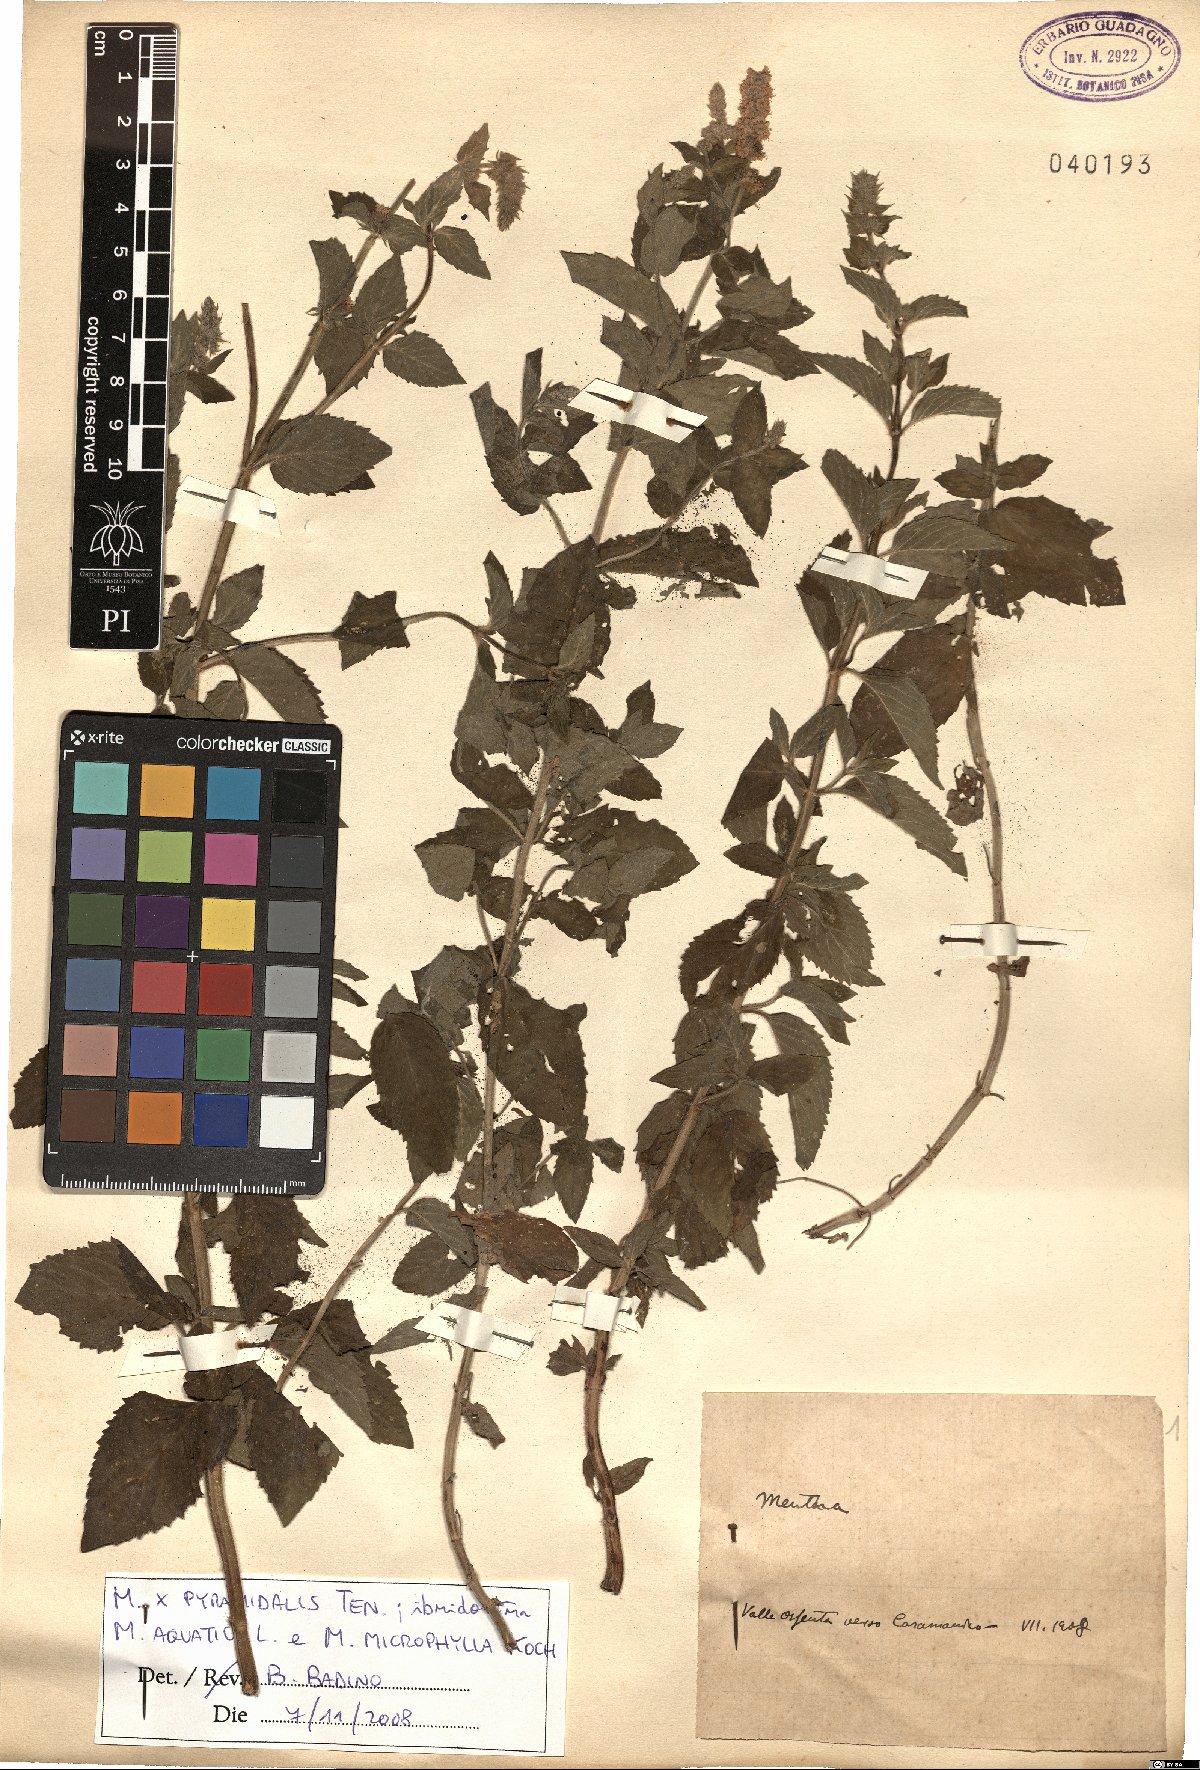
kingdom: Plantae
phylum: Tracheophyta
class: Magnoliopsida
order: Lamiales
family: Lamiaceae
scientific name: Lamiaceae
